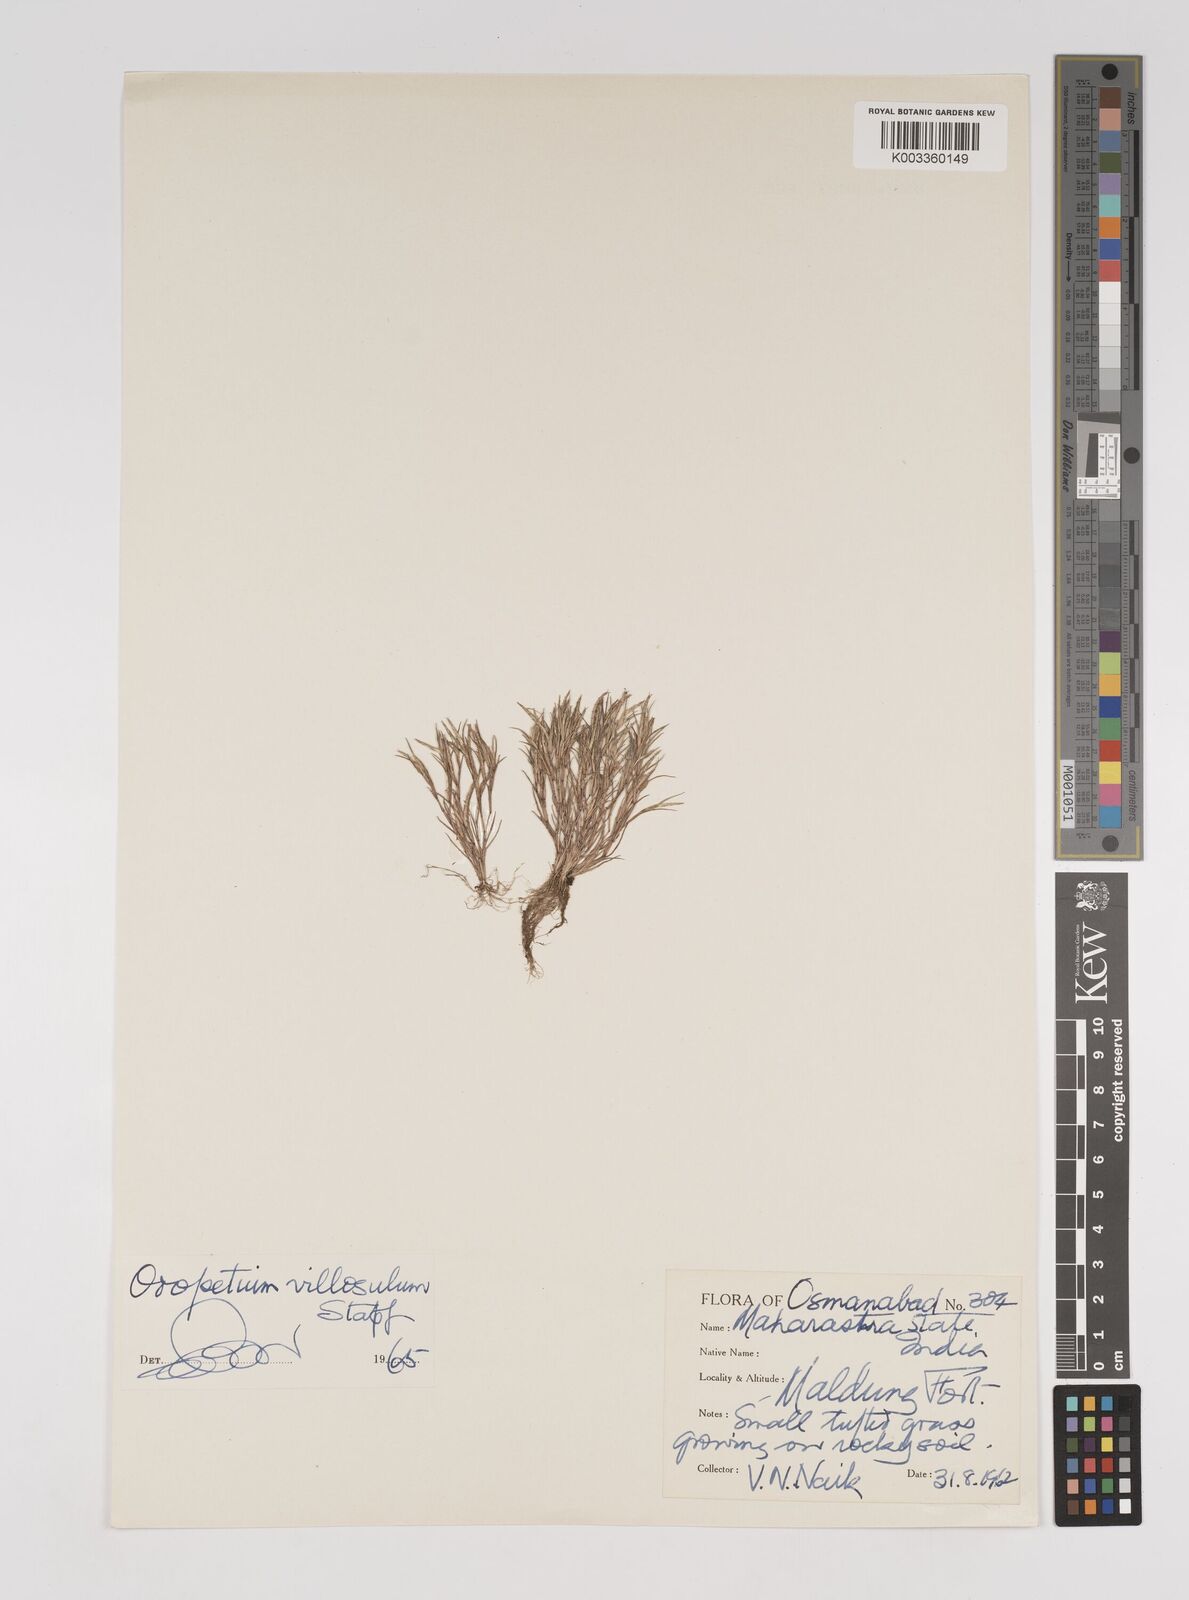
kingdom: Plantae
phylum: Tracheophyta
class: Liliopsida
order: Poales
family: Poaceae
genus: Oropetium
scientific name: Oropetium villosulum
